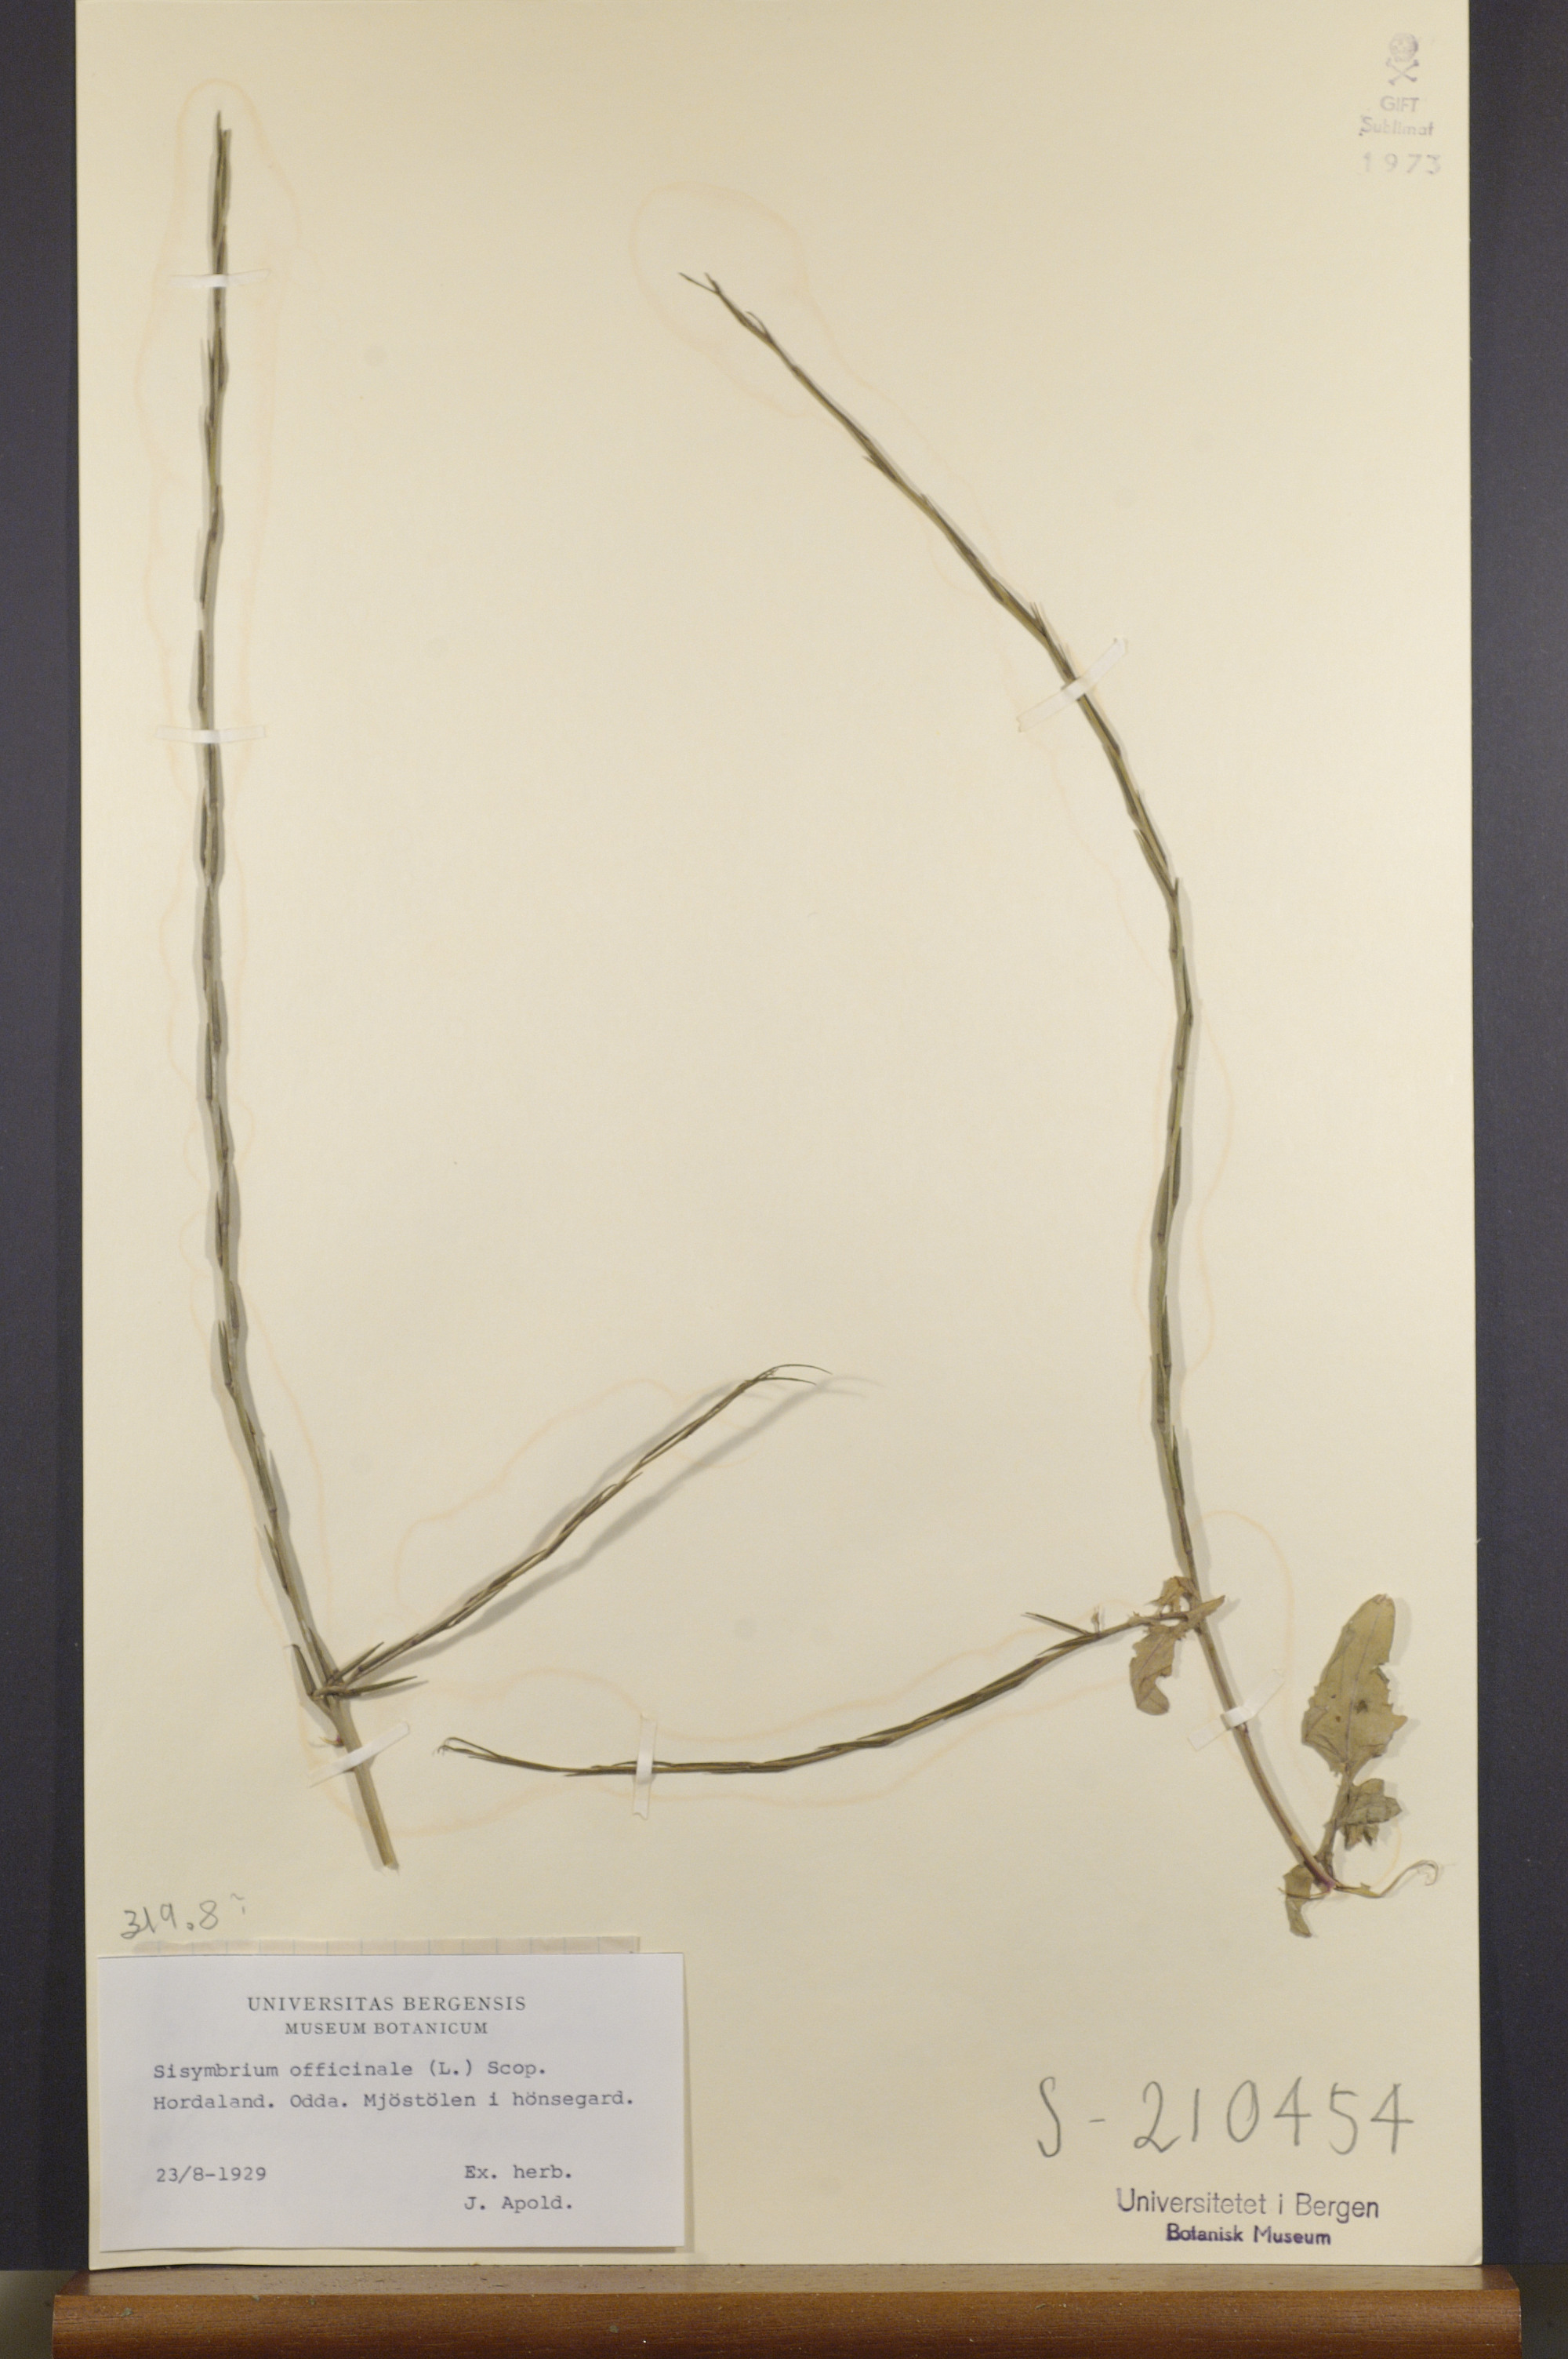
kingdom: Plantae
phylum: Tracheophyta
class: Magnoliopsida
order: Brassicales
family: Brassicaceae
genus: Sisymbrium
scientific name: Sisymbrium officinale
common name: Hedge mustard
